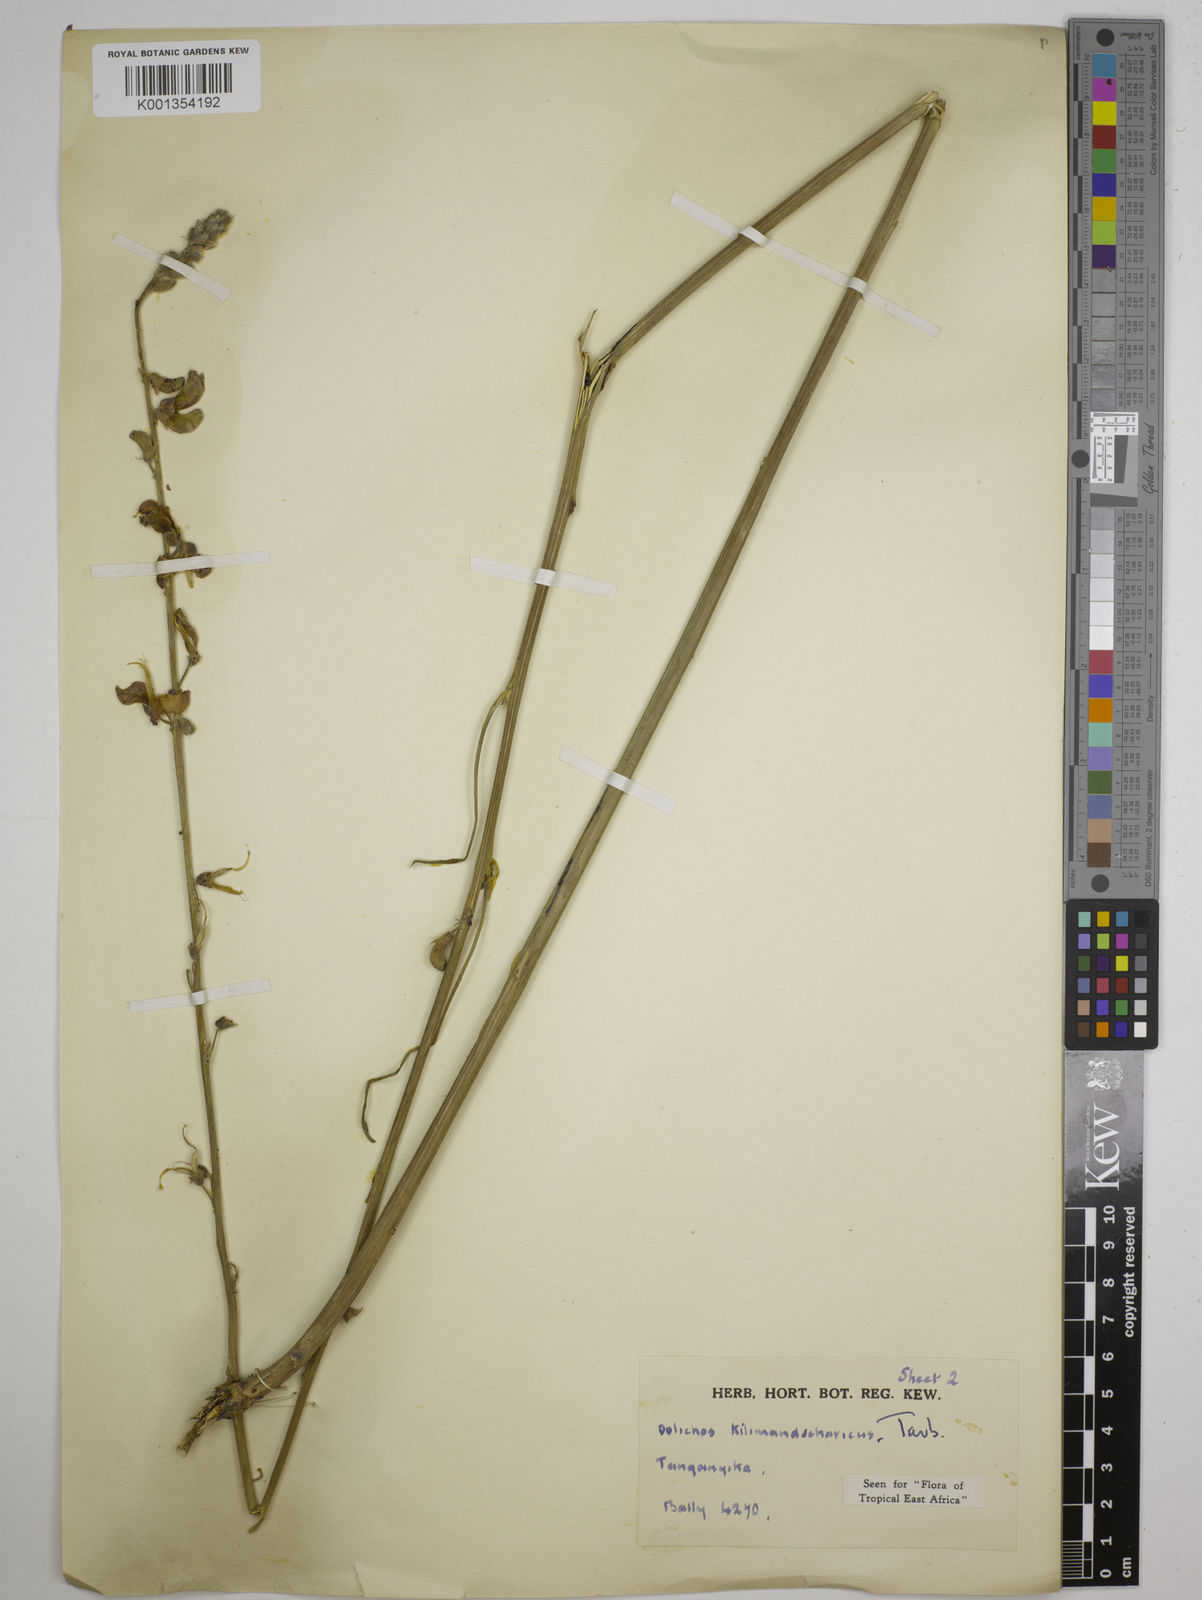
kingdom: Plantae
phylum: Tracheophyta
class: Magnoliopsida
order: Fabales
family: Fabaceae
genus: Dolichos
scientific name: Dolichos kilimandscharicus
